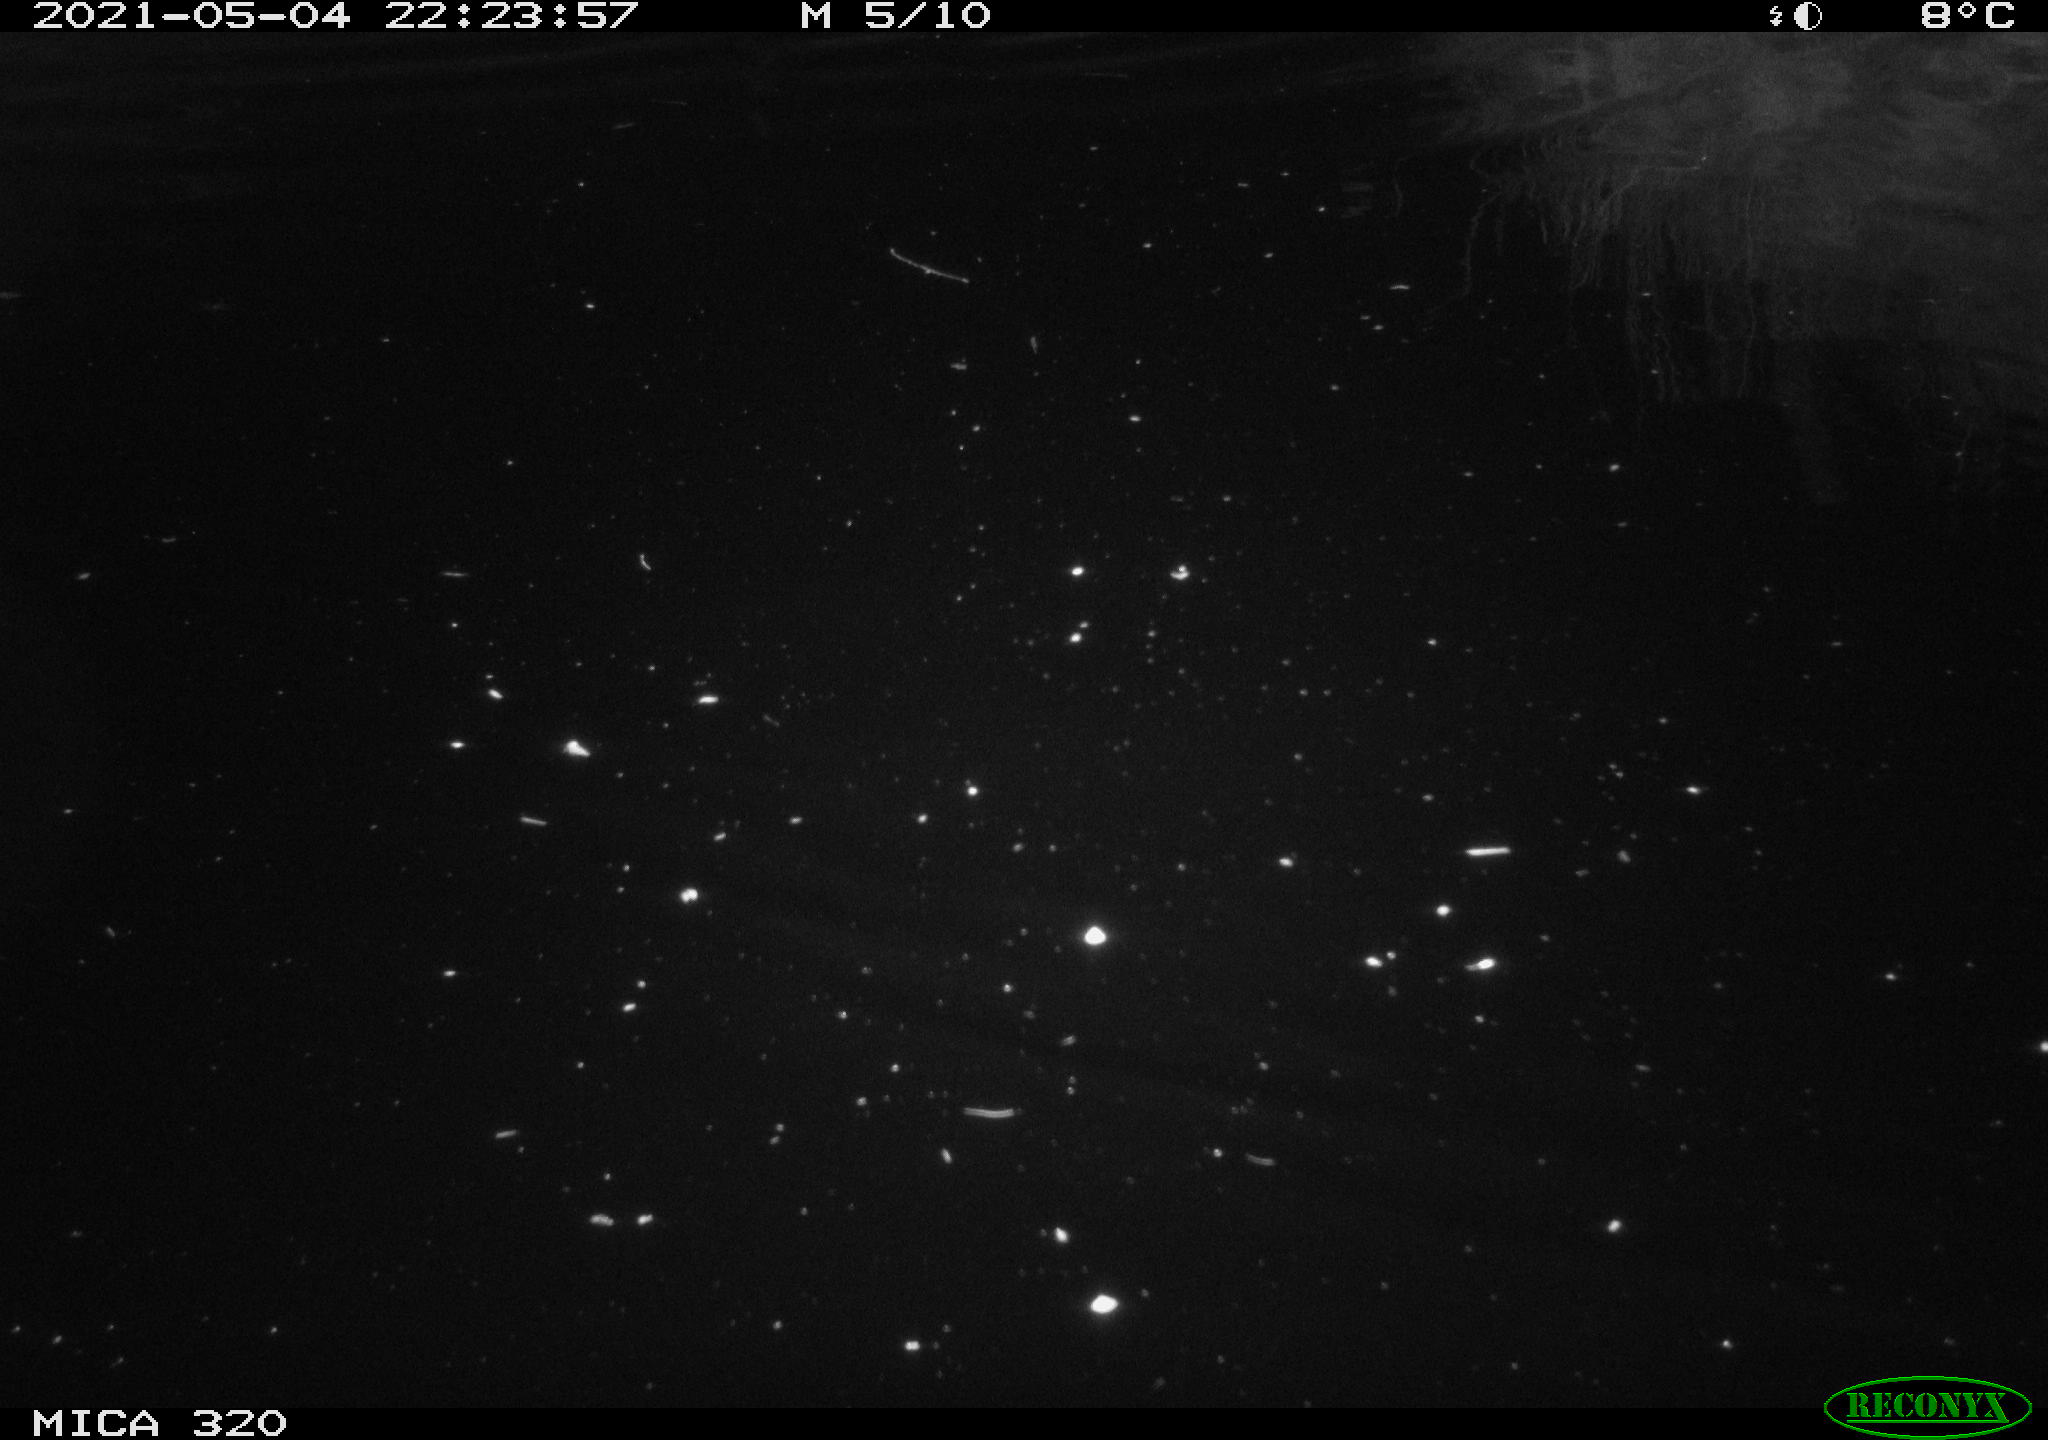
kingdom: Animalia
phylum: Chordata
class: Aves
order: Anseriformes
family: Anatidae
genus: Anas
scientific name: Anas platyrhynchos
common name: Mallard
